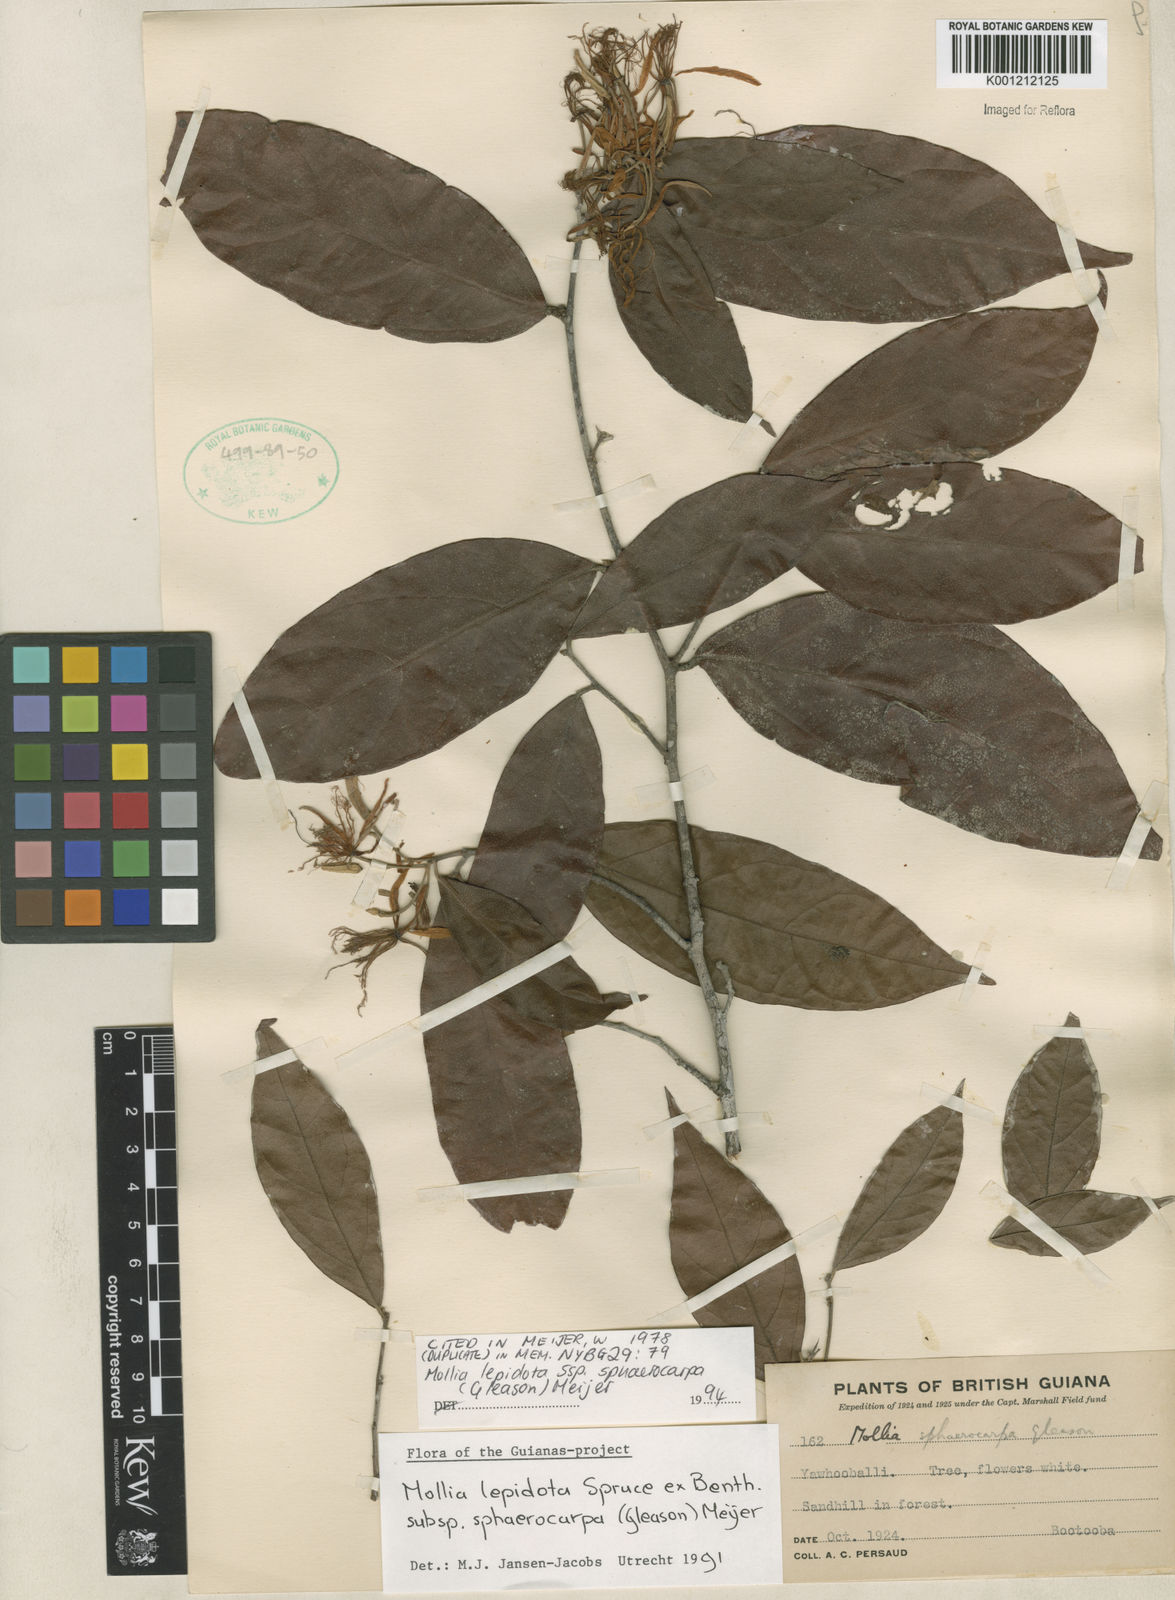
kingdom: Plantae
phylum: Tracheophyta
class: Magnoliopsida
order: Malvales
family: Malvaceae
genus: Mollia
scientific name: Mollia lepidota
